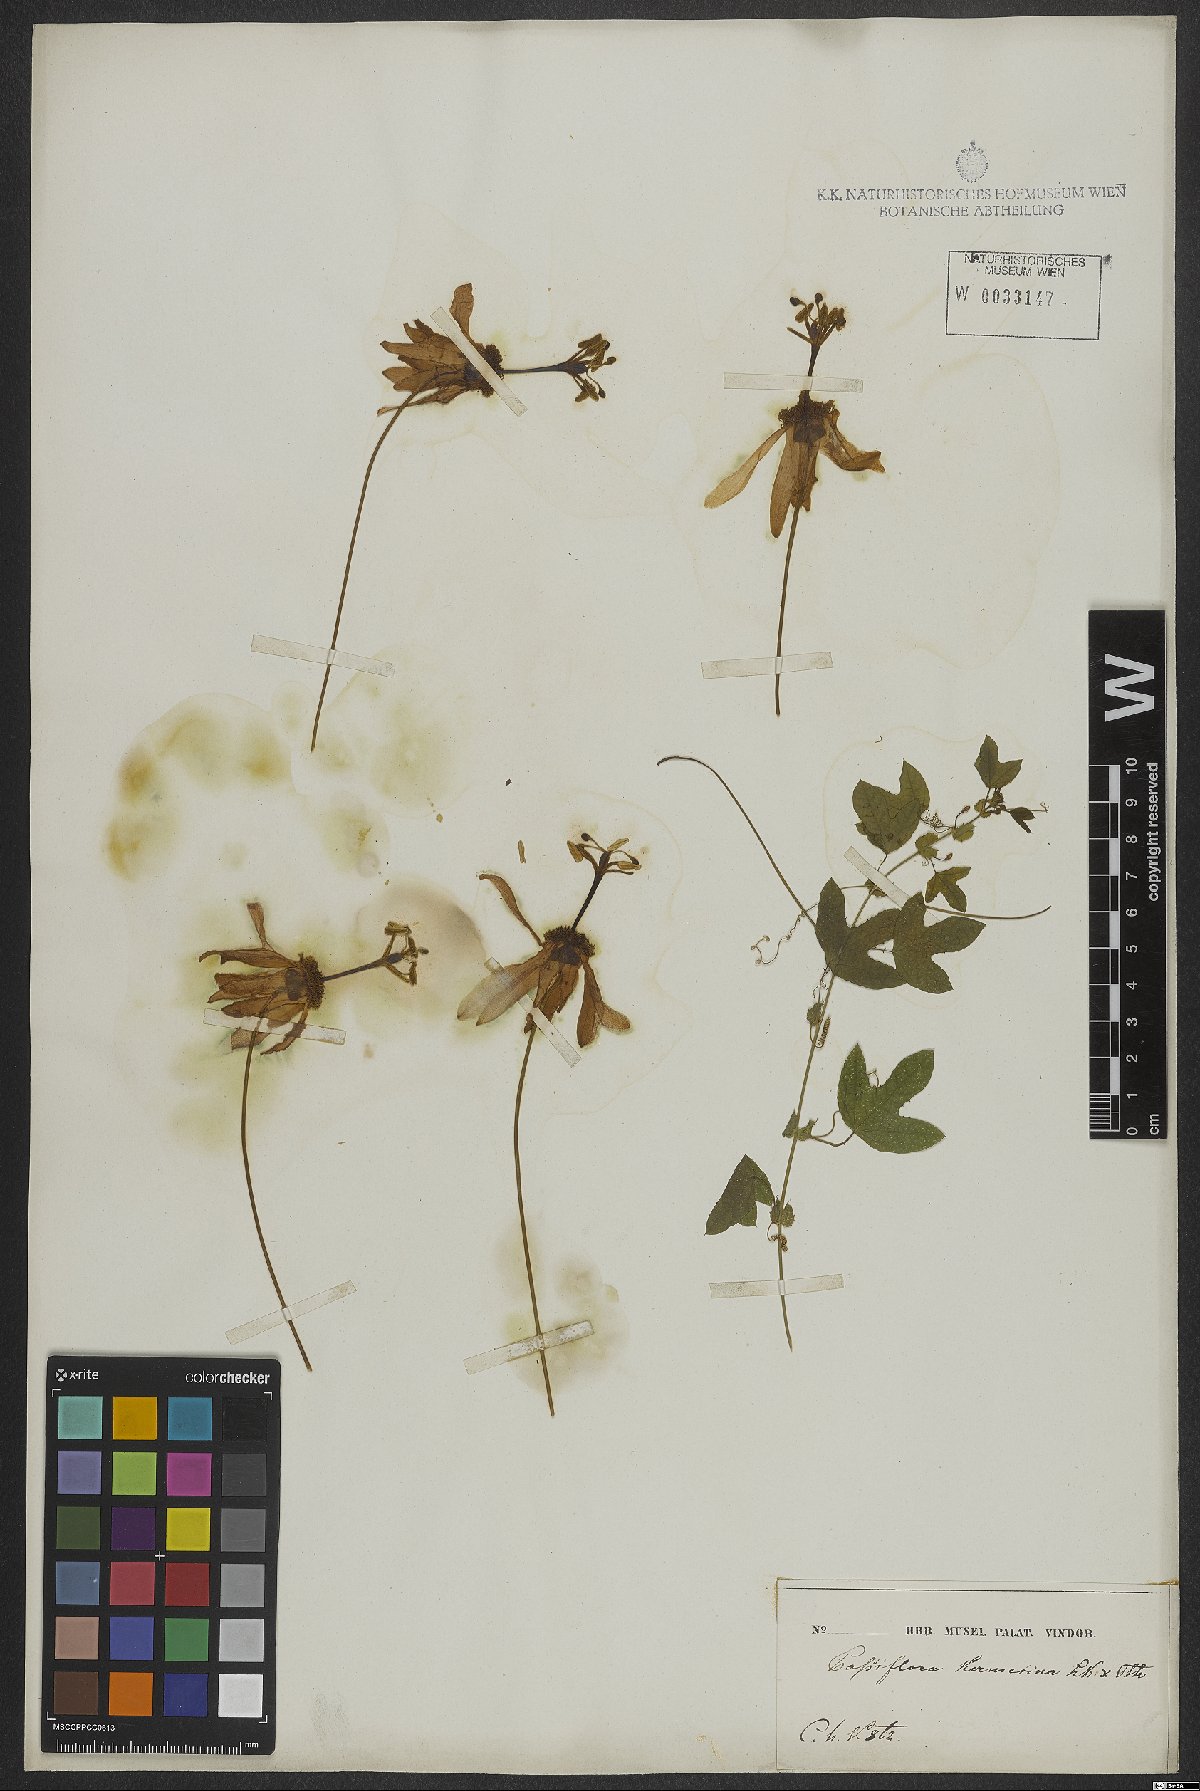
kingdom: Plantae
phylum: Tracheophyta
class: Magnoliopsida
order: Malpighiales
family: Passifloraceae
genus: Passiflora
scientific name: Passiflora kermesina
